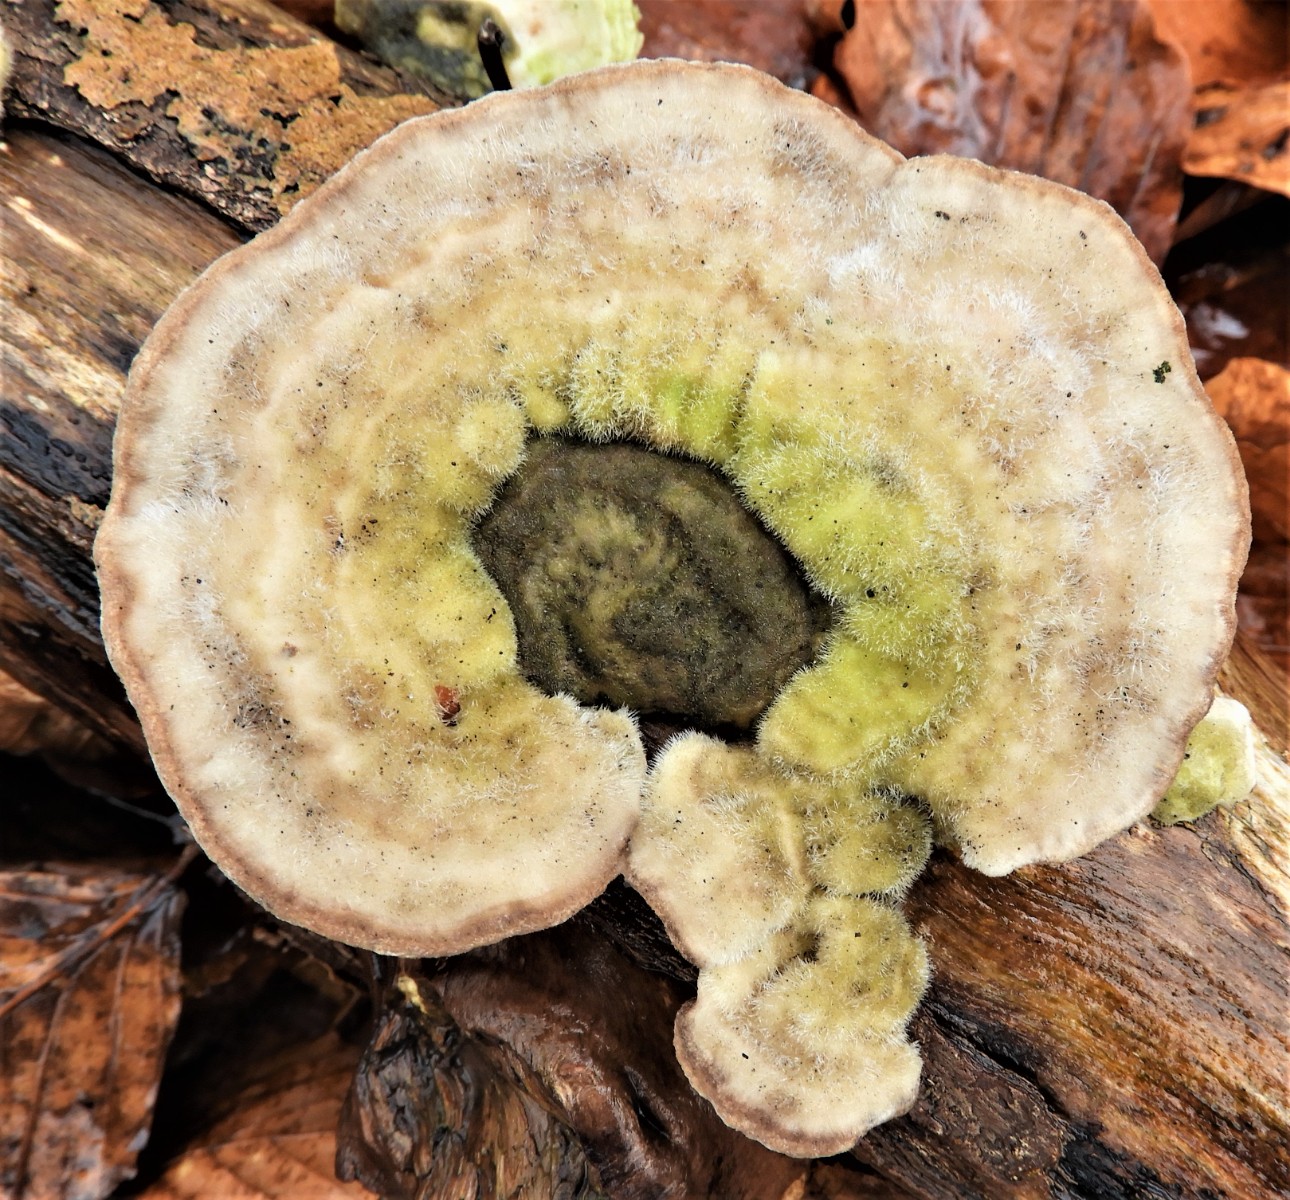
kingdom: Fungi
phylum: Basidiomycota
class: Agaricomycetes
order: Polyporales
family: Polyporaceae
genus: Trametes
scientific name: Trametes hirsuta
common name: håret læderporesvamp
